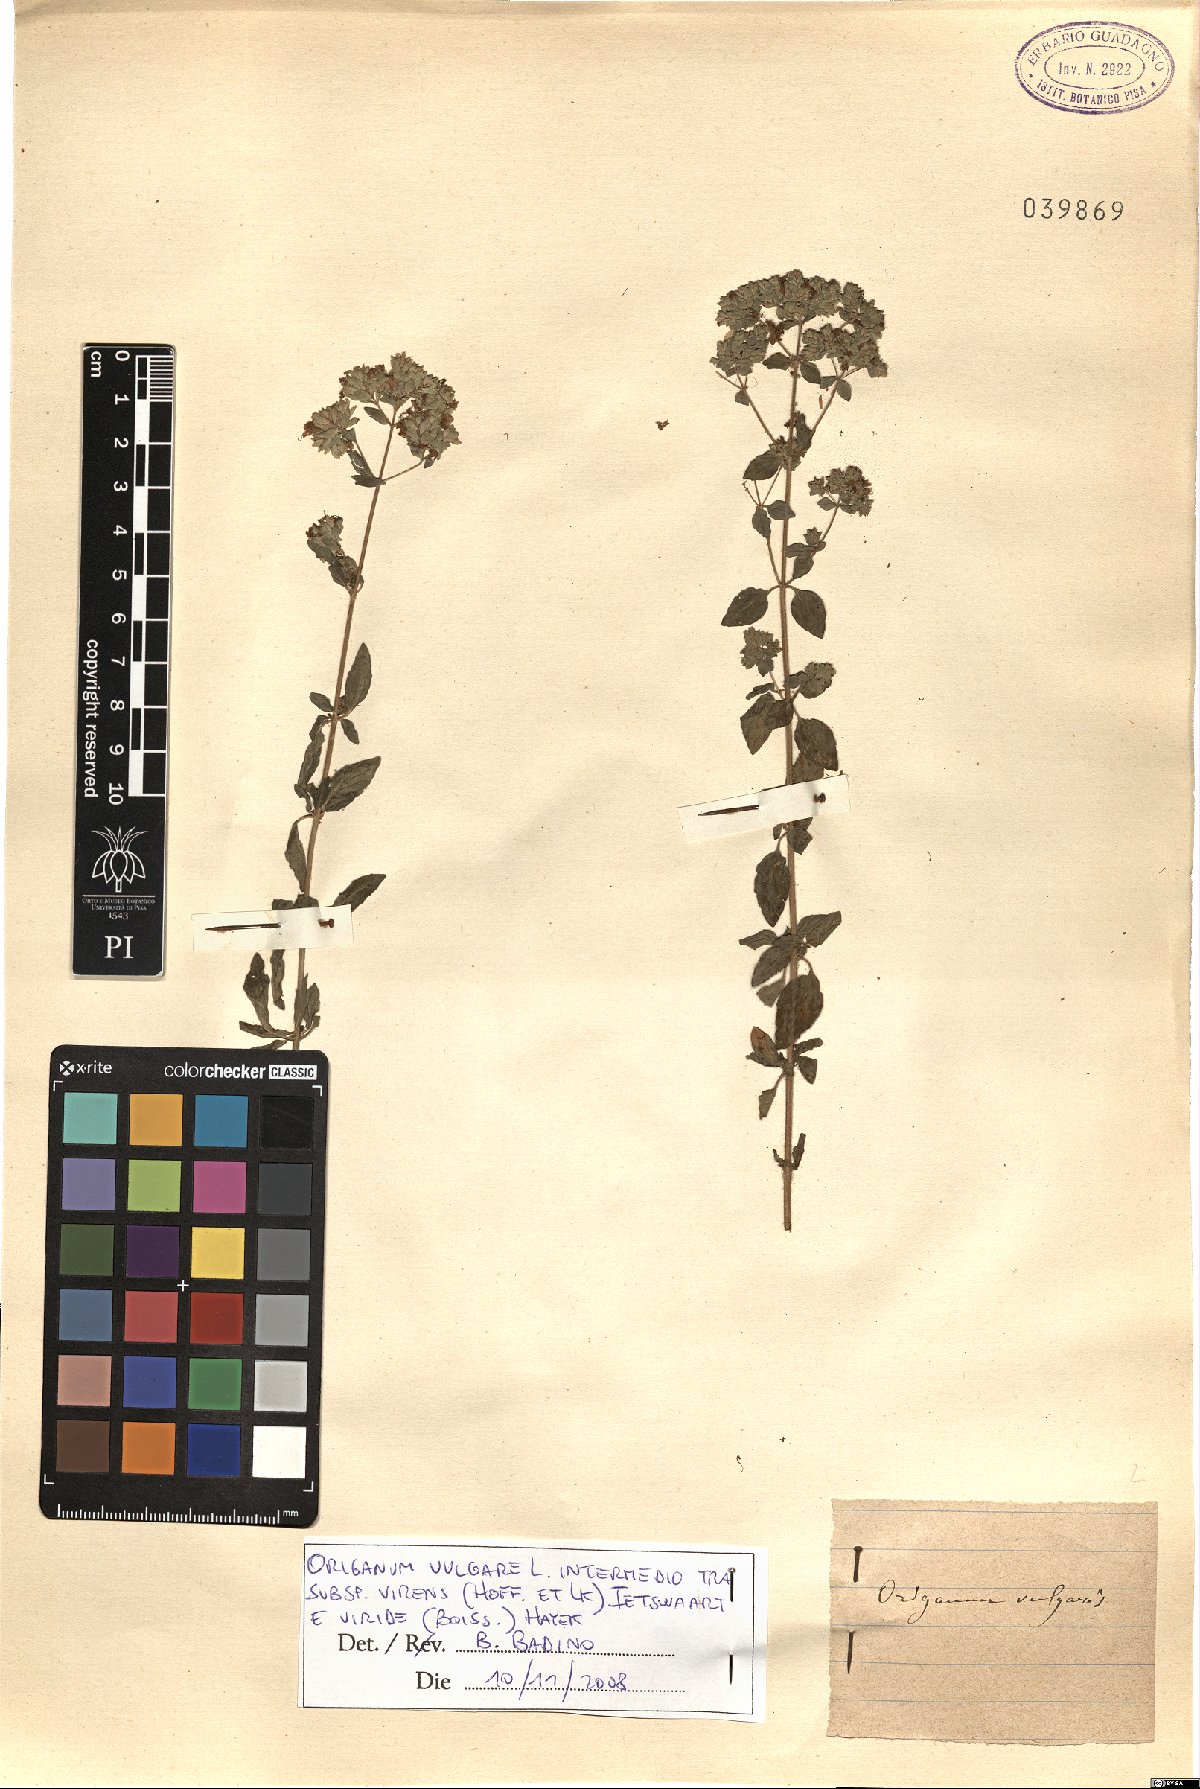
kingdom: Plantae
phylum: Tracheophyta
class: Magnoliopsida
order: Lamiales
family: Lamiaceae
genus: Origanum
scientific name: Origanum vulgare
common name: Wild marjoram
